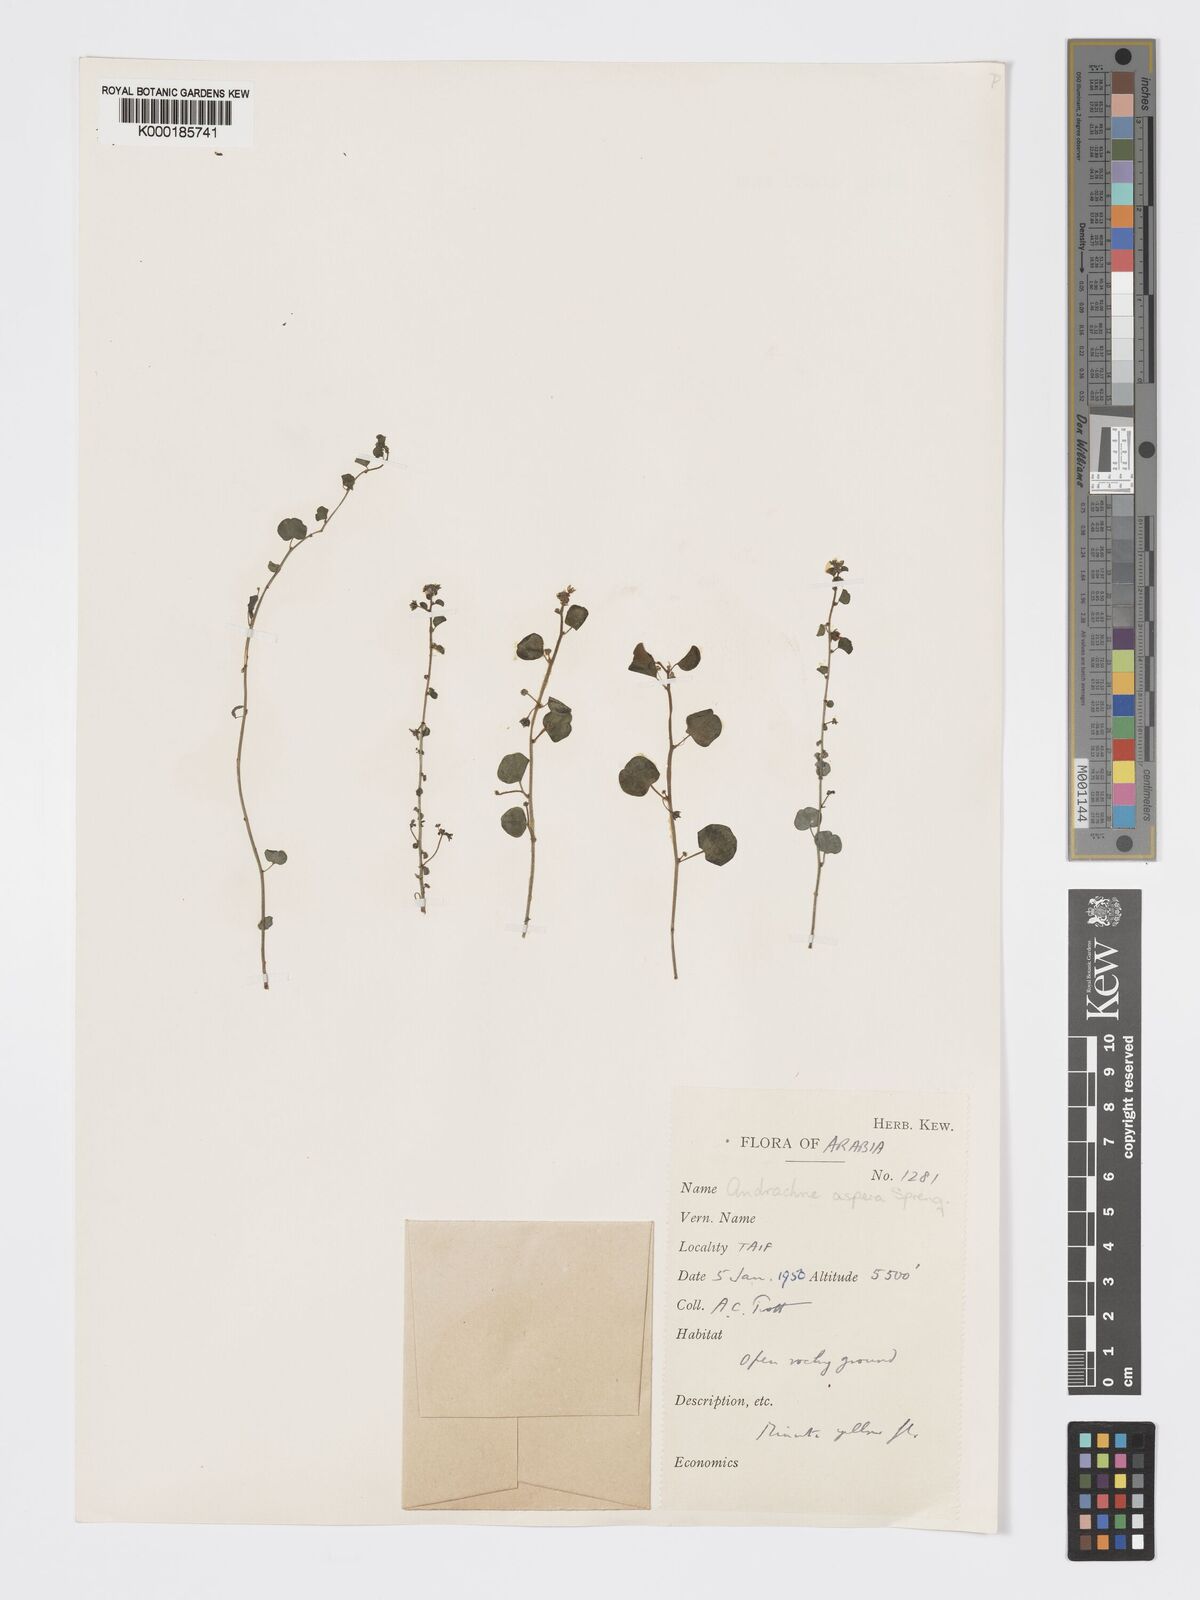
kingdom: Plantae
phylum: Tracheophyta
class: Magnoliopsida
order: Malpighiales
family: Phyllanthaceae
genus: Andrachne
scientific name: Andrachne aspera
